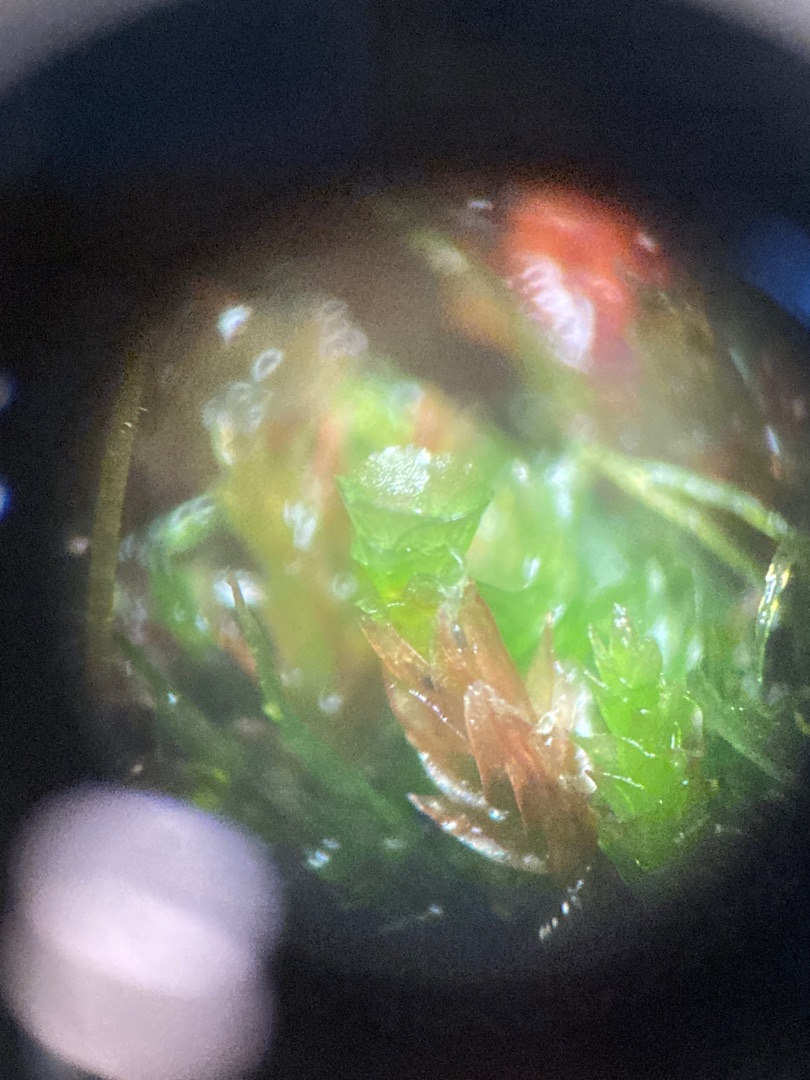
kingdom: Plantae
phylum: Bryophyta
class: Polytrichopsida
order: Tetraphidales
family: Tetraphidaceae
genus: Tetraphis
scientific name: Tetraphis pellucida
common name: Almindelig firtand
